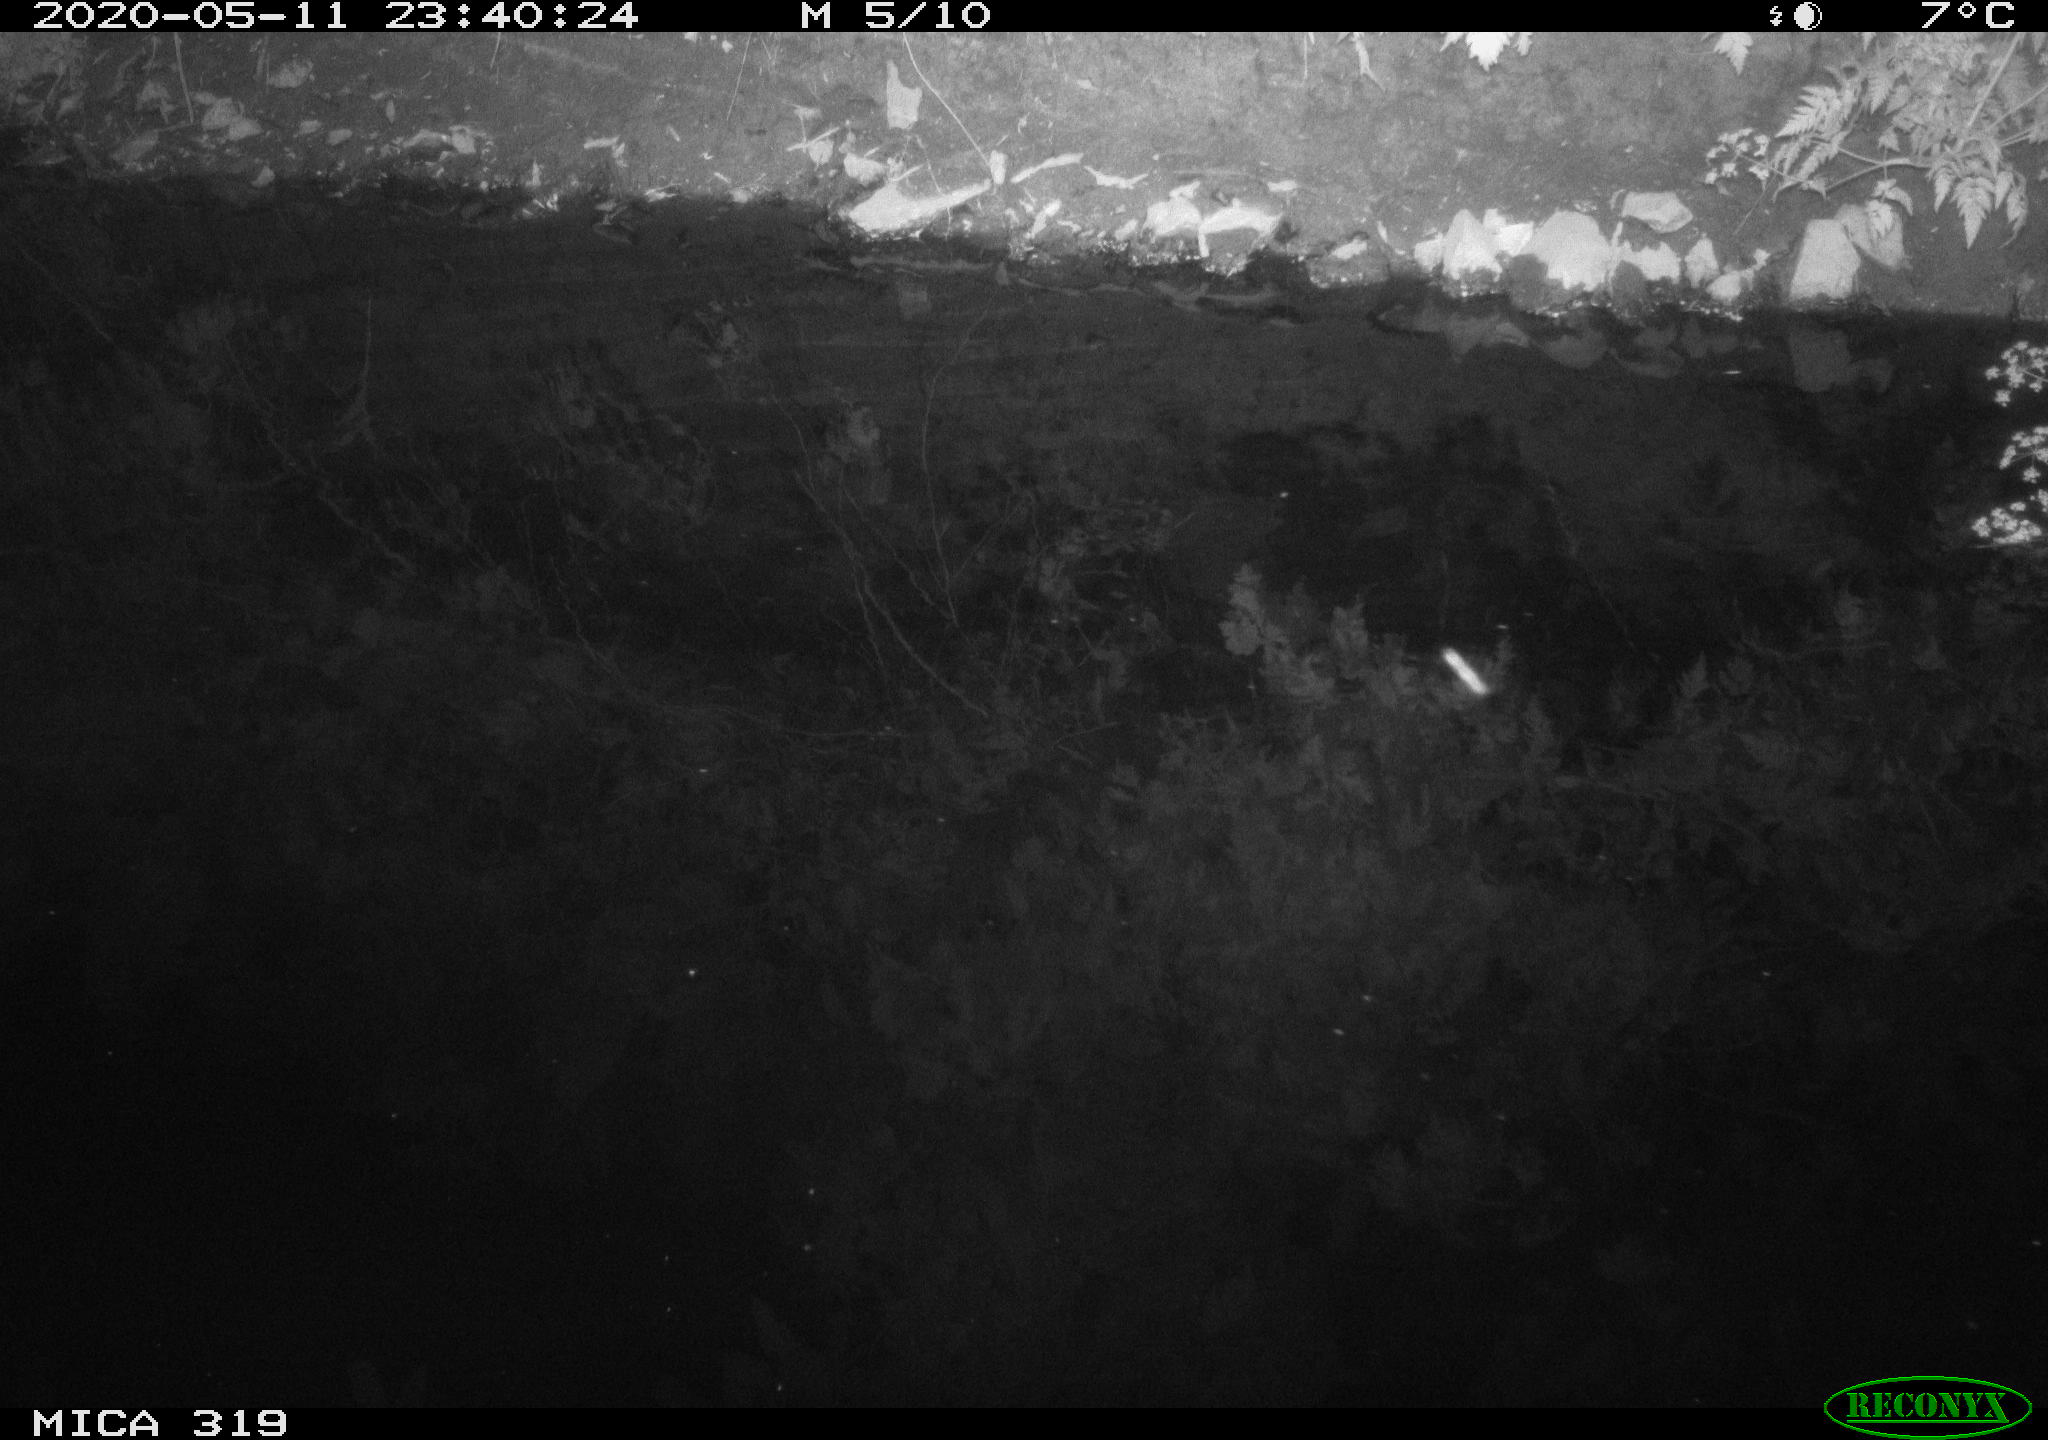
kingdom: Animalia
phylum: Chordata
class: Aves
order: Anseriformes
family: Anatidae
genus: Anas
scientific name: Anas platyrhynchos
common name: Mallard
